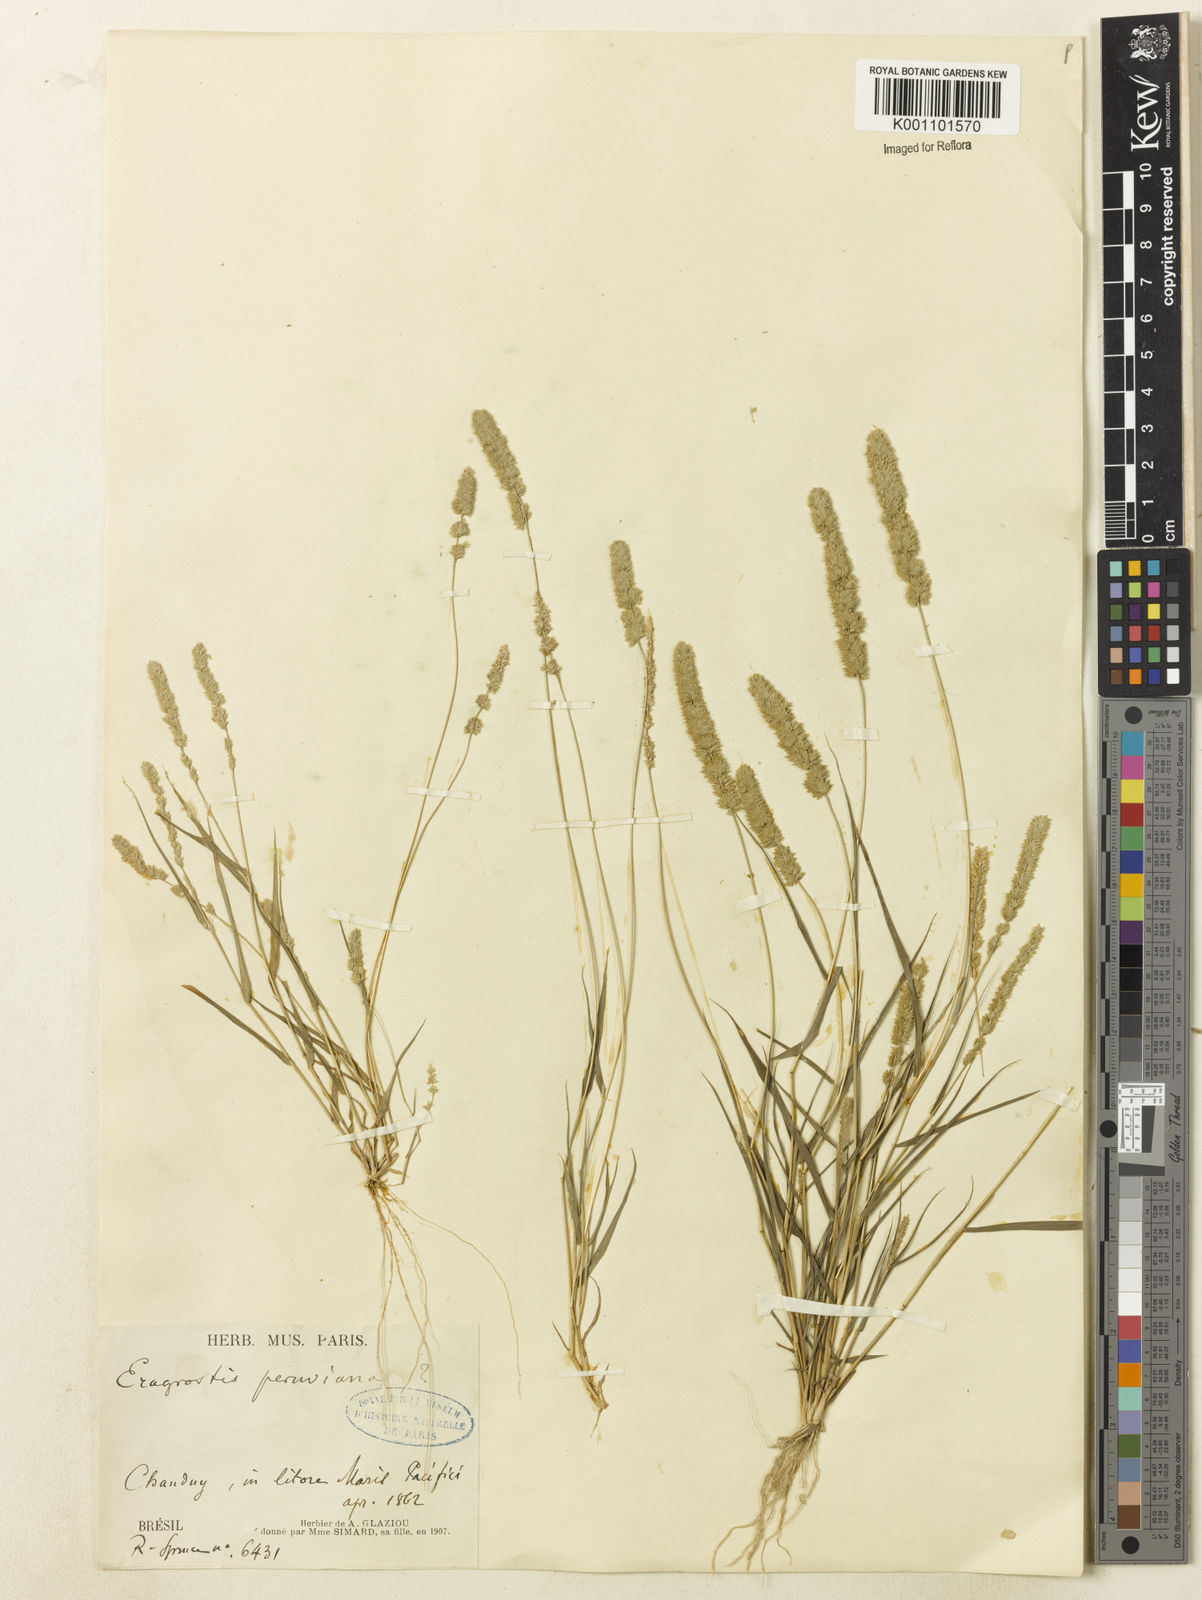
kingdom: Plantae
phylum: Tracheophyta
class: Liliopsida
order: Poales
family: Poaceae
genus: Eragrostis
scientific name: Eragrostis ciliaris
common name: Gophertail lovegrass
